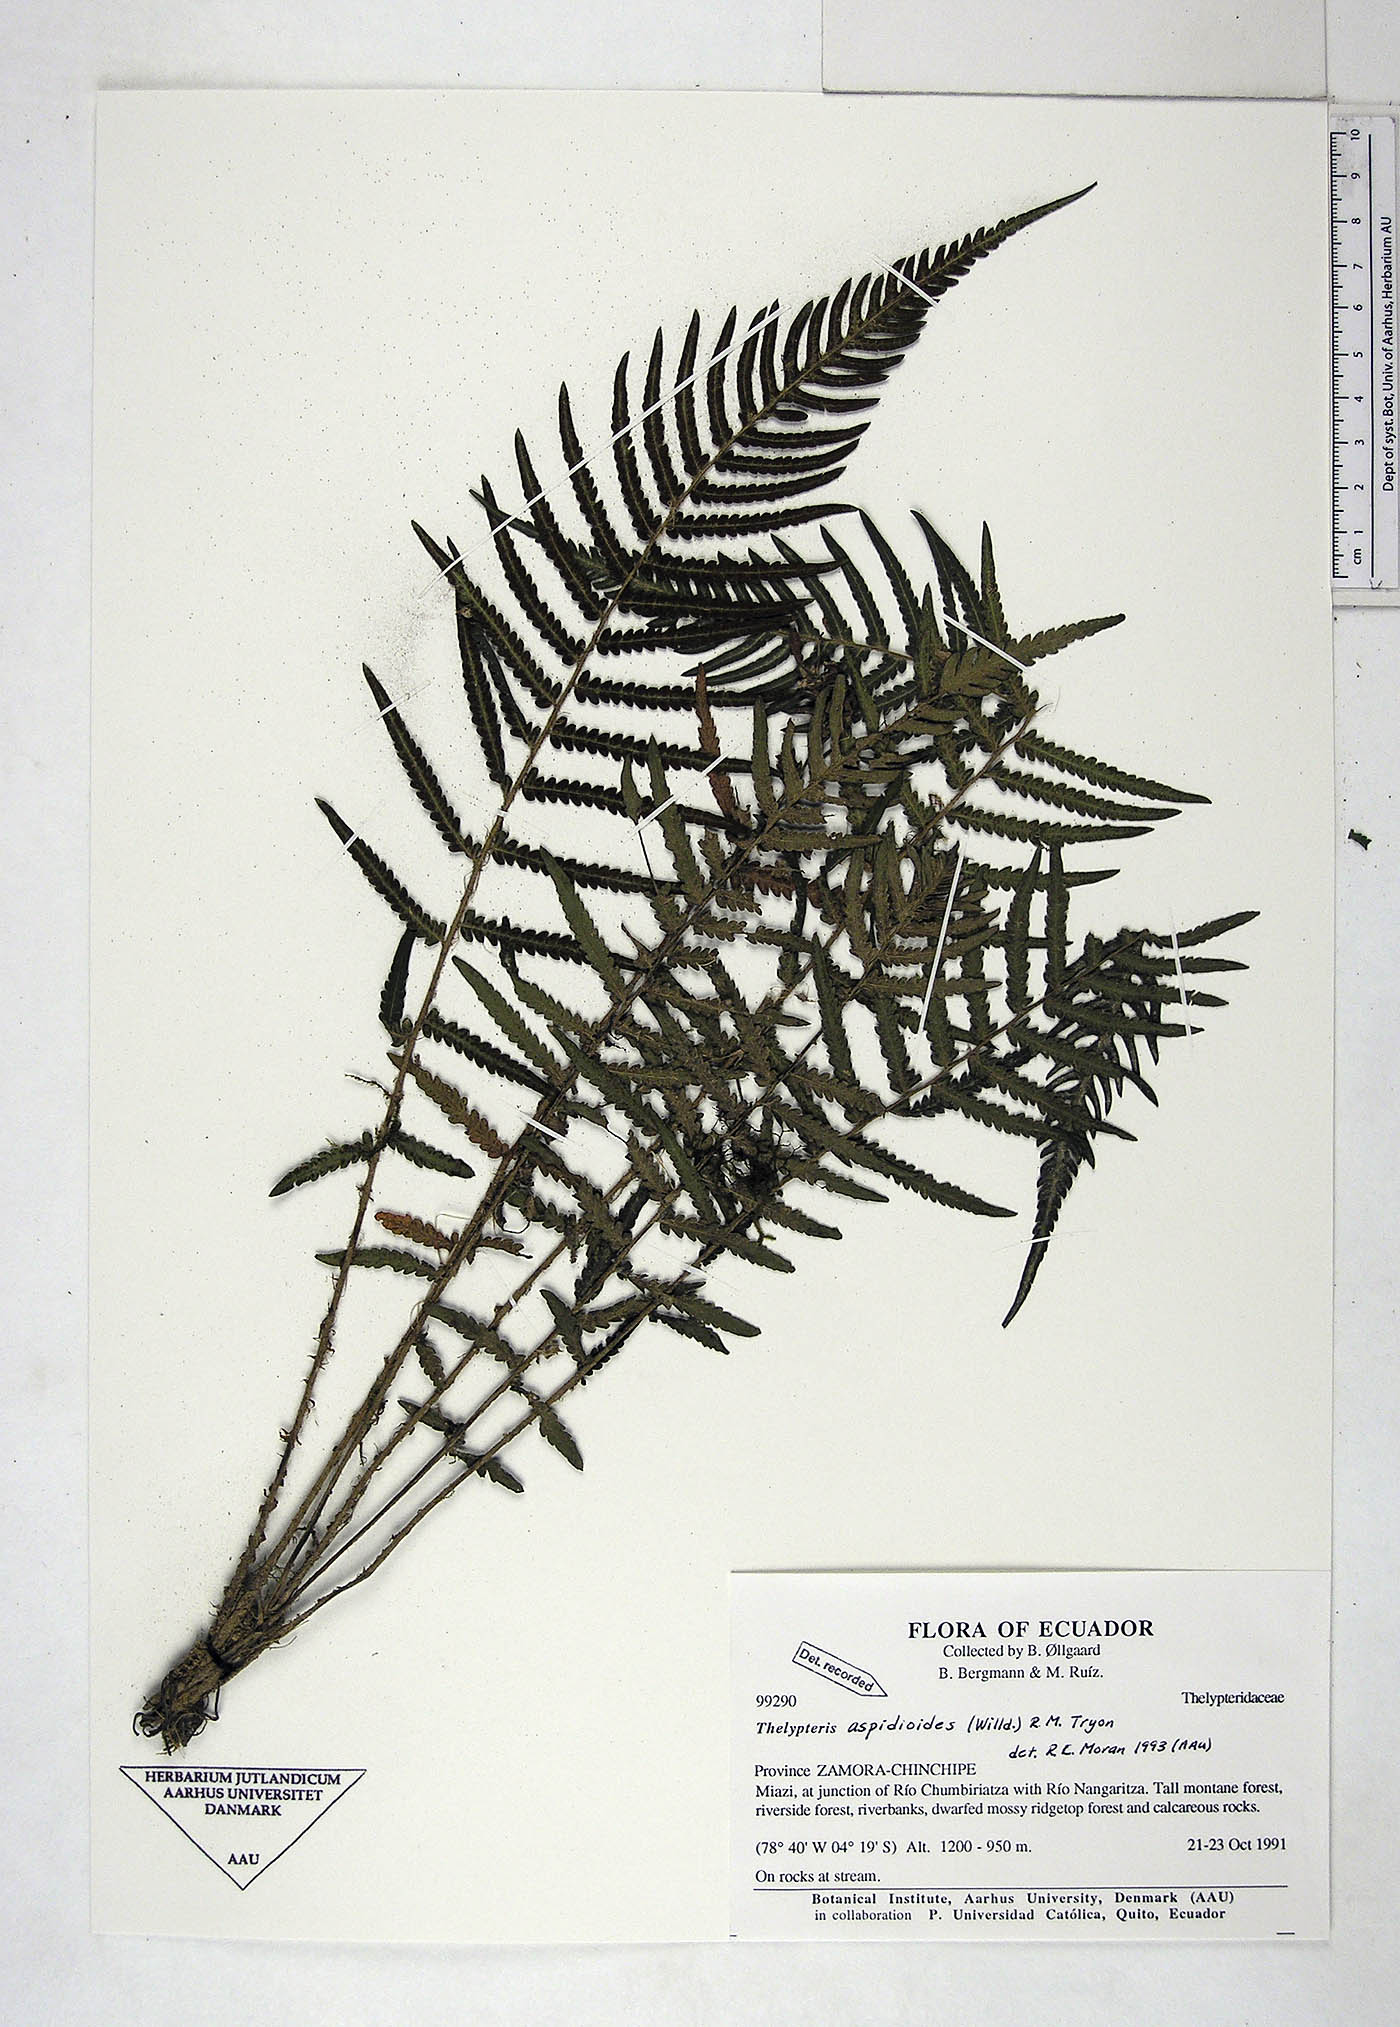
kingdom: Plantae
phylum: Tracheophyta
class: Polypodiopsida
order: Polypodiales
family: Thelypteridaceae
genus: Amauropelta
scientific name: Amauropelta aspidioides
